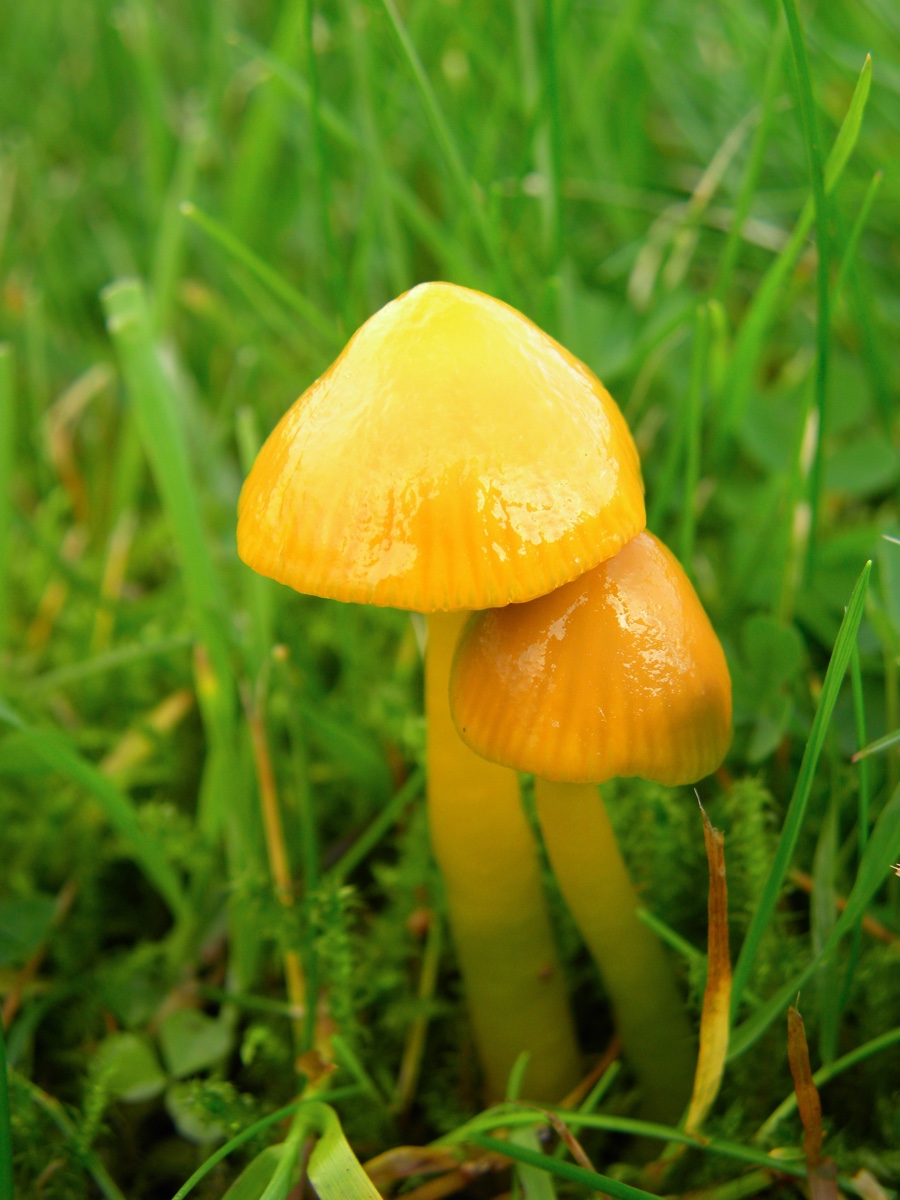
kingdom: Fungi
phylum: Basidiomycota
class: Agaricomycetes
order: Agaricales
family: Hygrophoraceae
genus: Gliophorus
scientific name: Gliophorus psittacinus
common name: papegøje-vokshat
